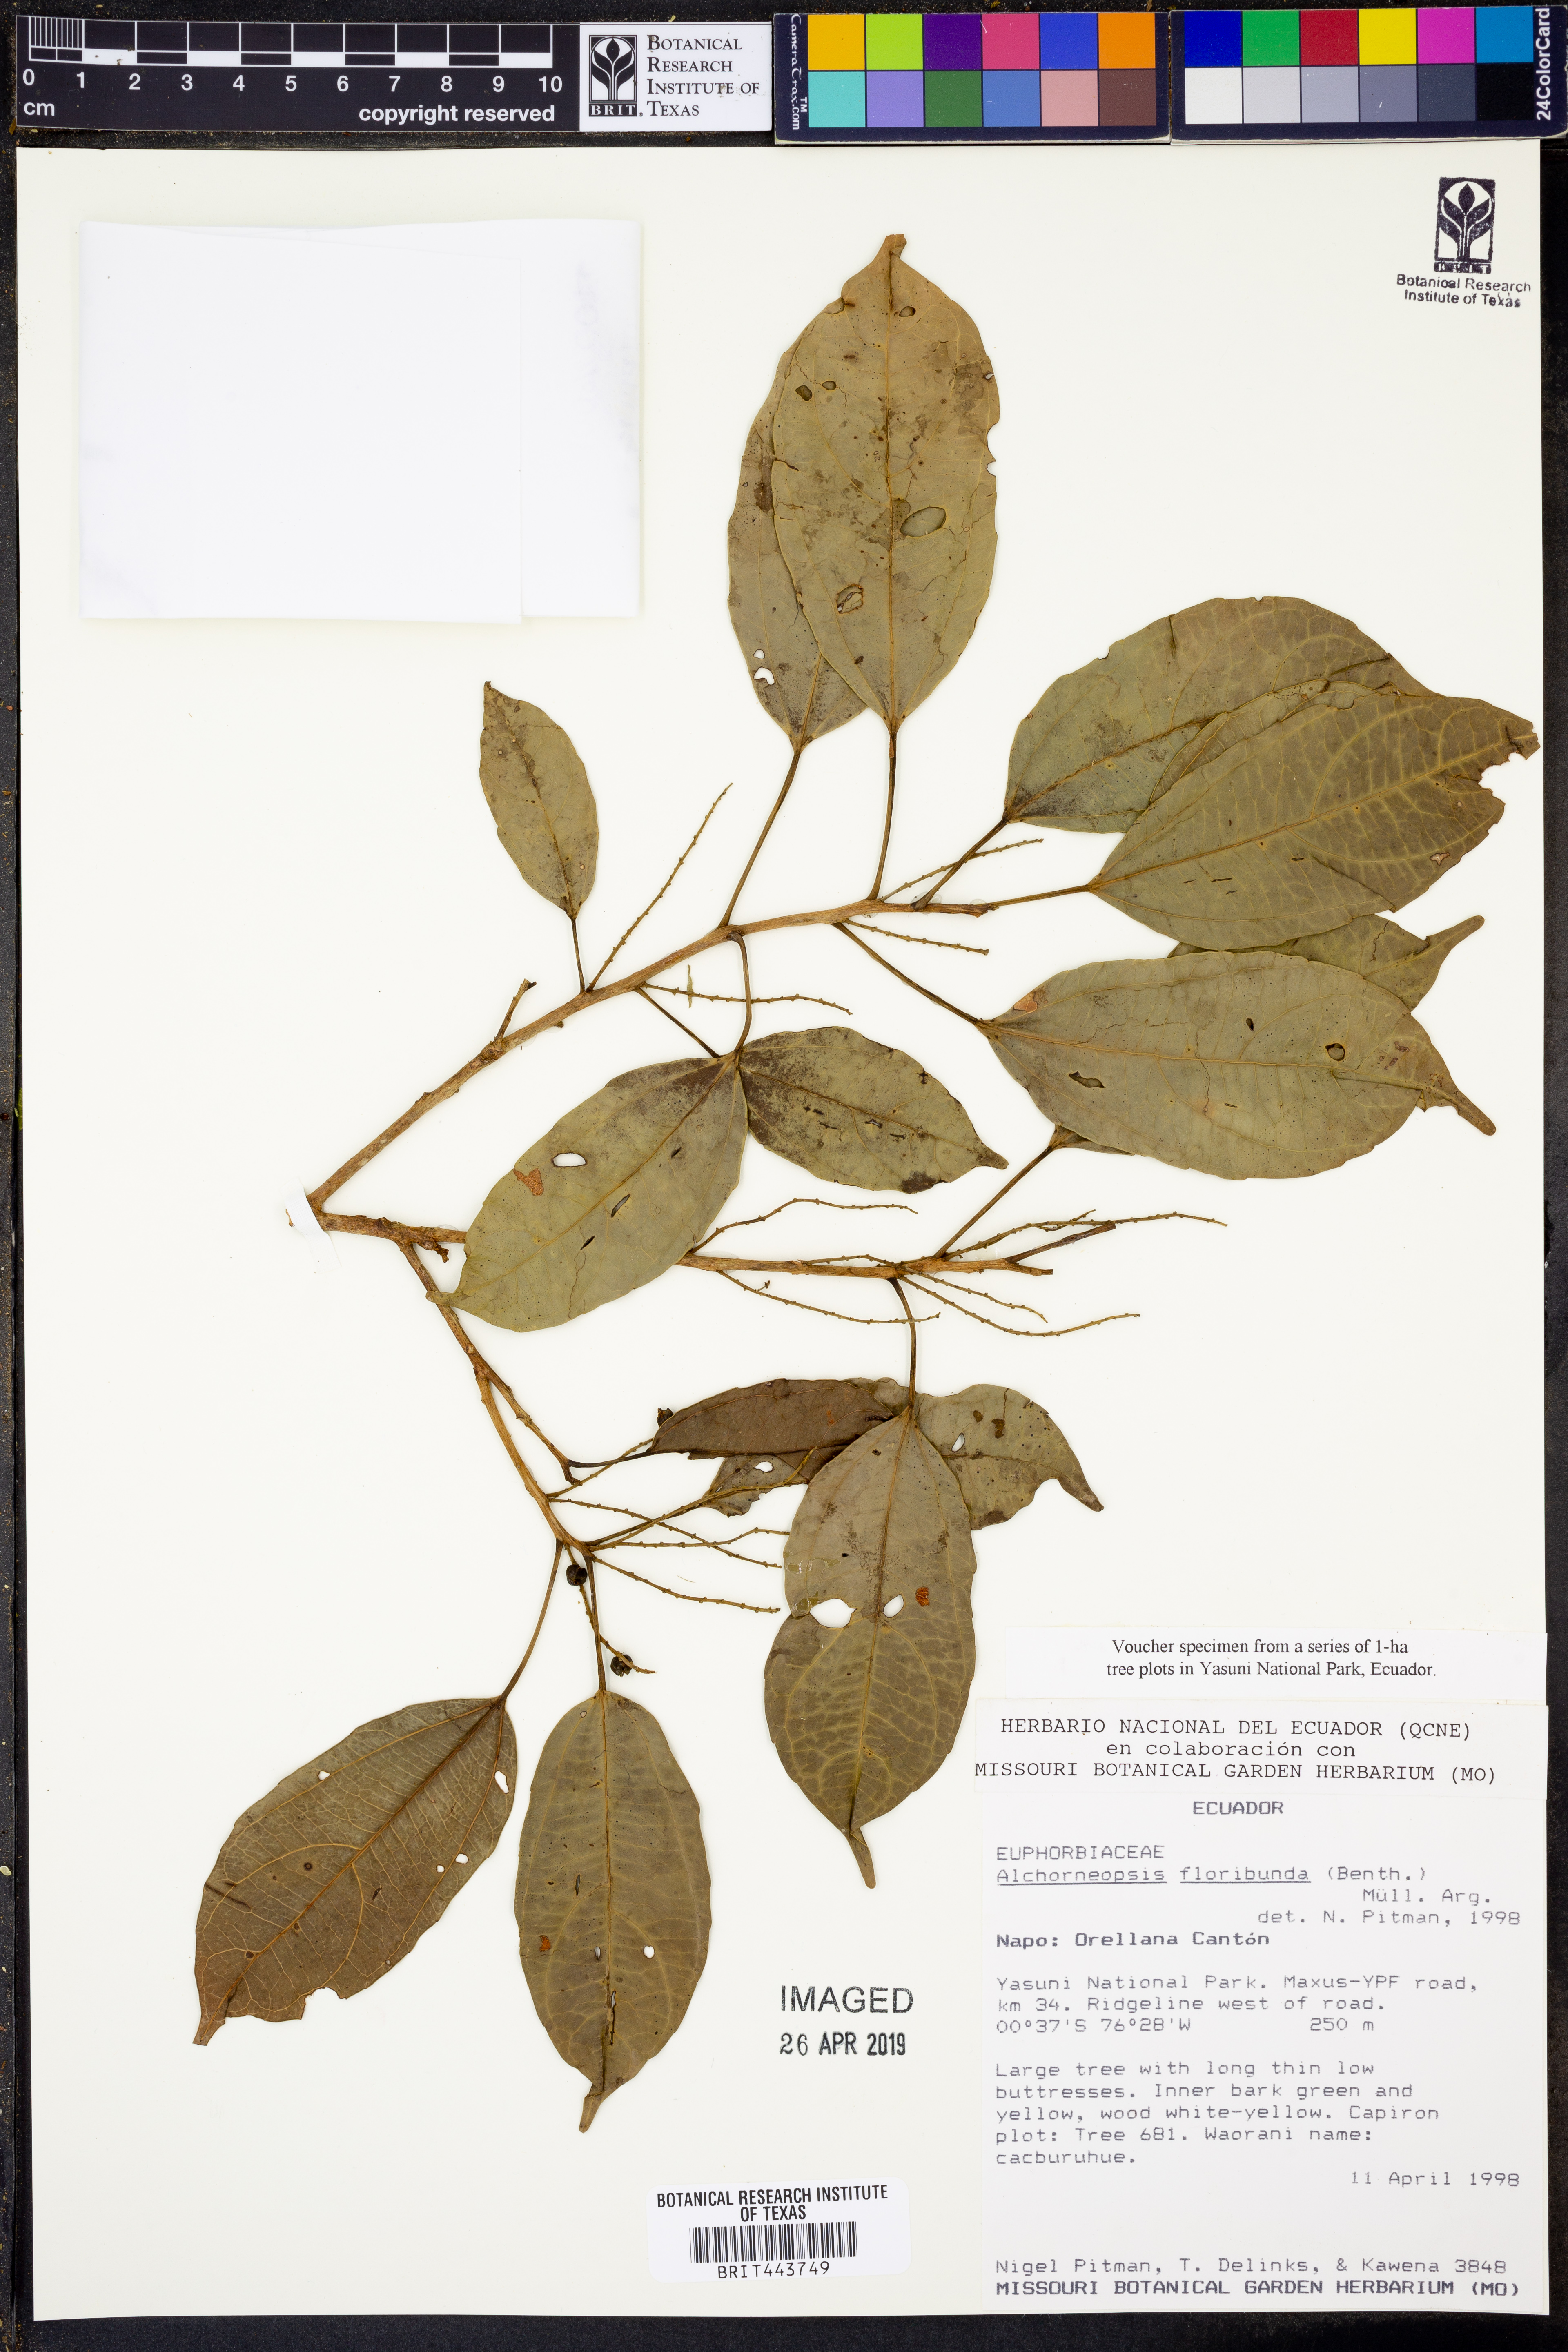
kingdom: Plantae
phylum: Tracheophyta
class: Magnoliopsida
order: Malpighiales
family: Euphorbiaceae
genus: Alchorneopsis
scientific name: Alchorneopsis floribunda
